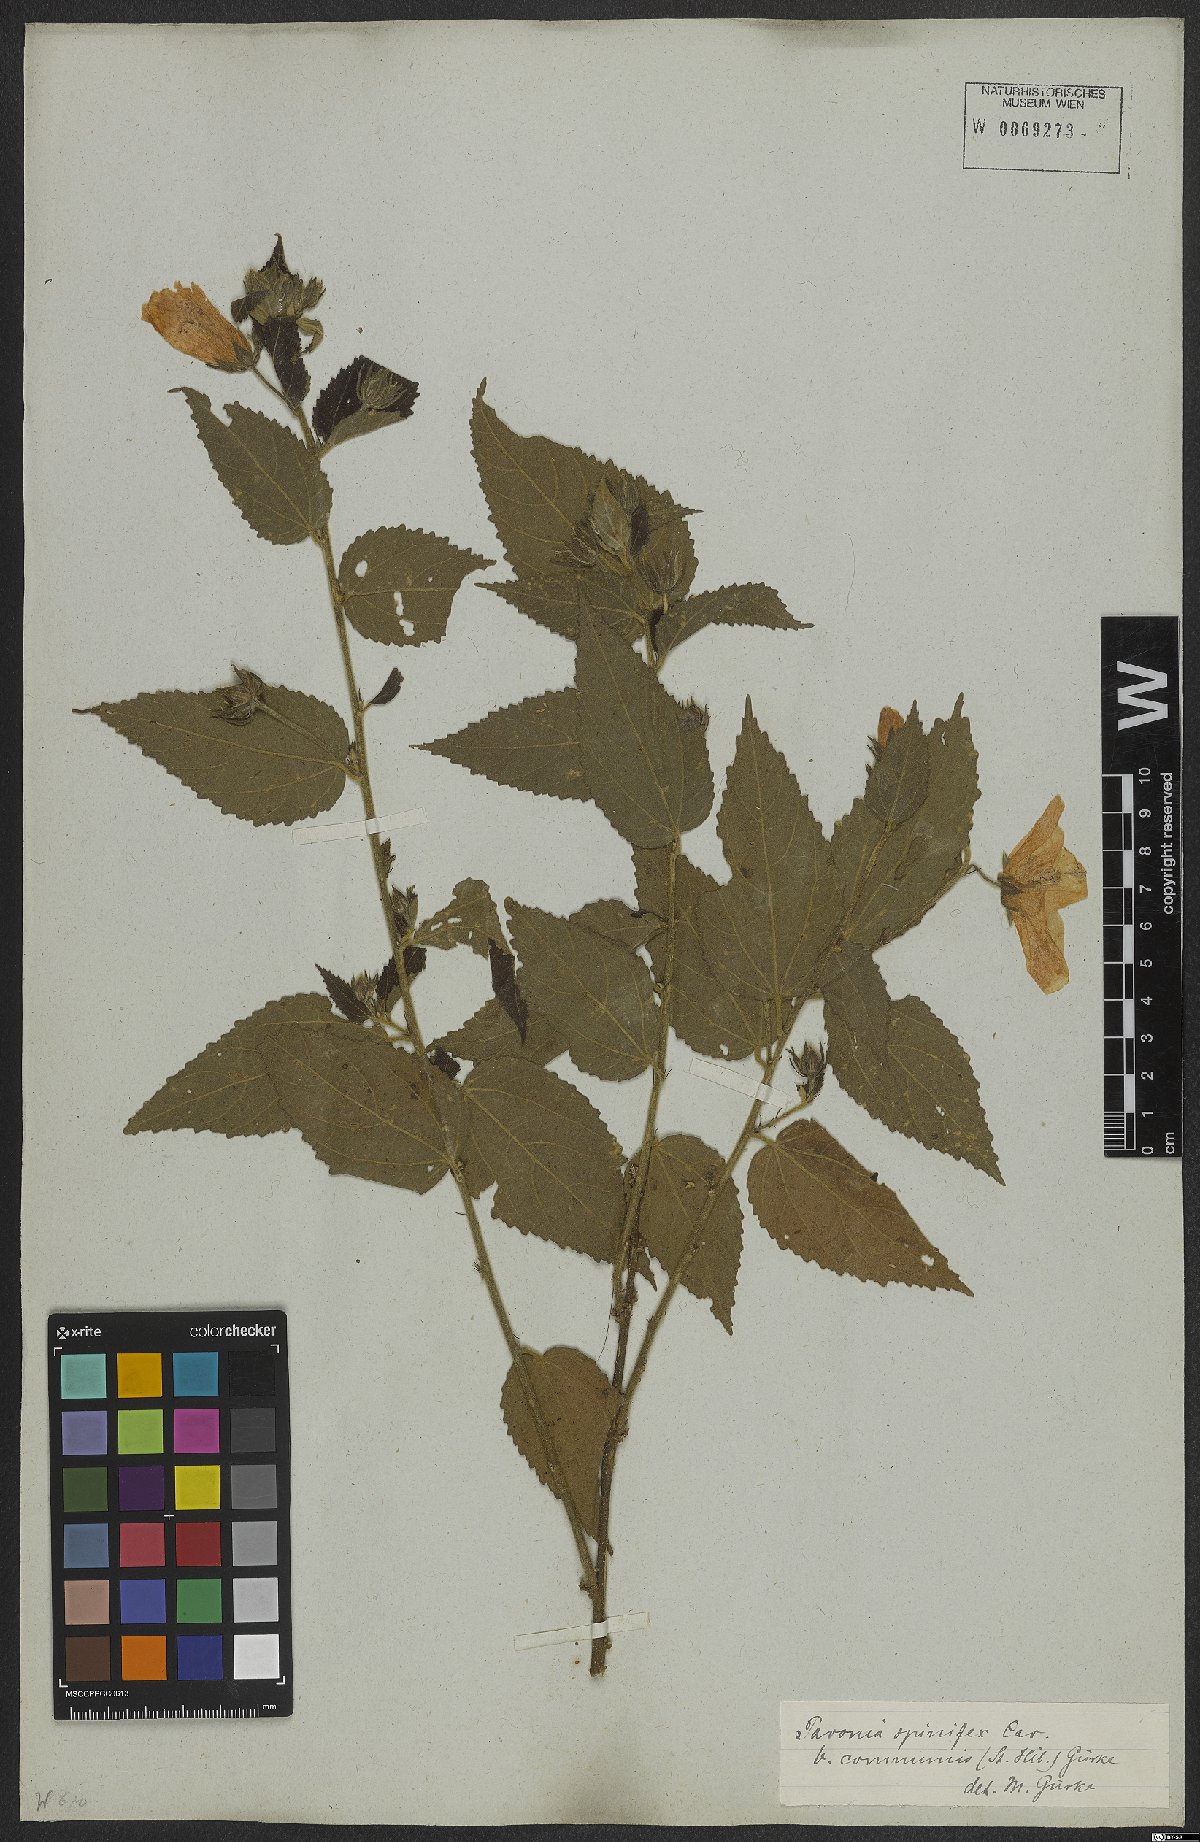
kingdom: Plantae
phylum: Tracheophyta
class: Magnoliopsida
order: Malvales
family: Malvaceae
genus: Pavonia
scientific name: Pavonia communis
